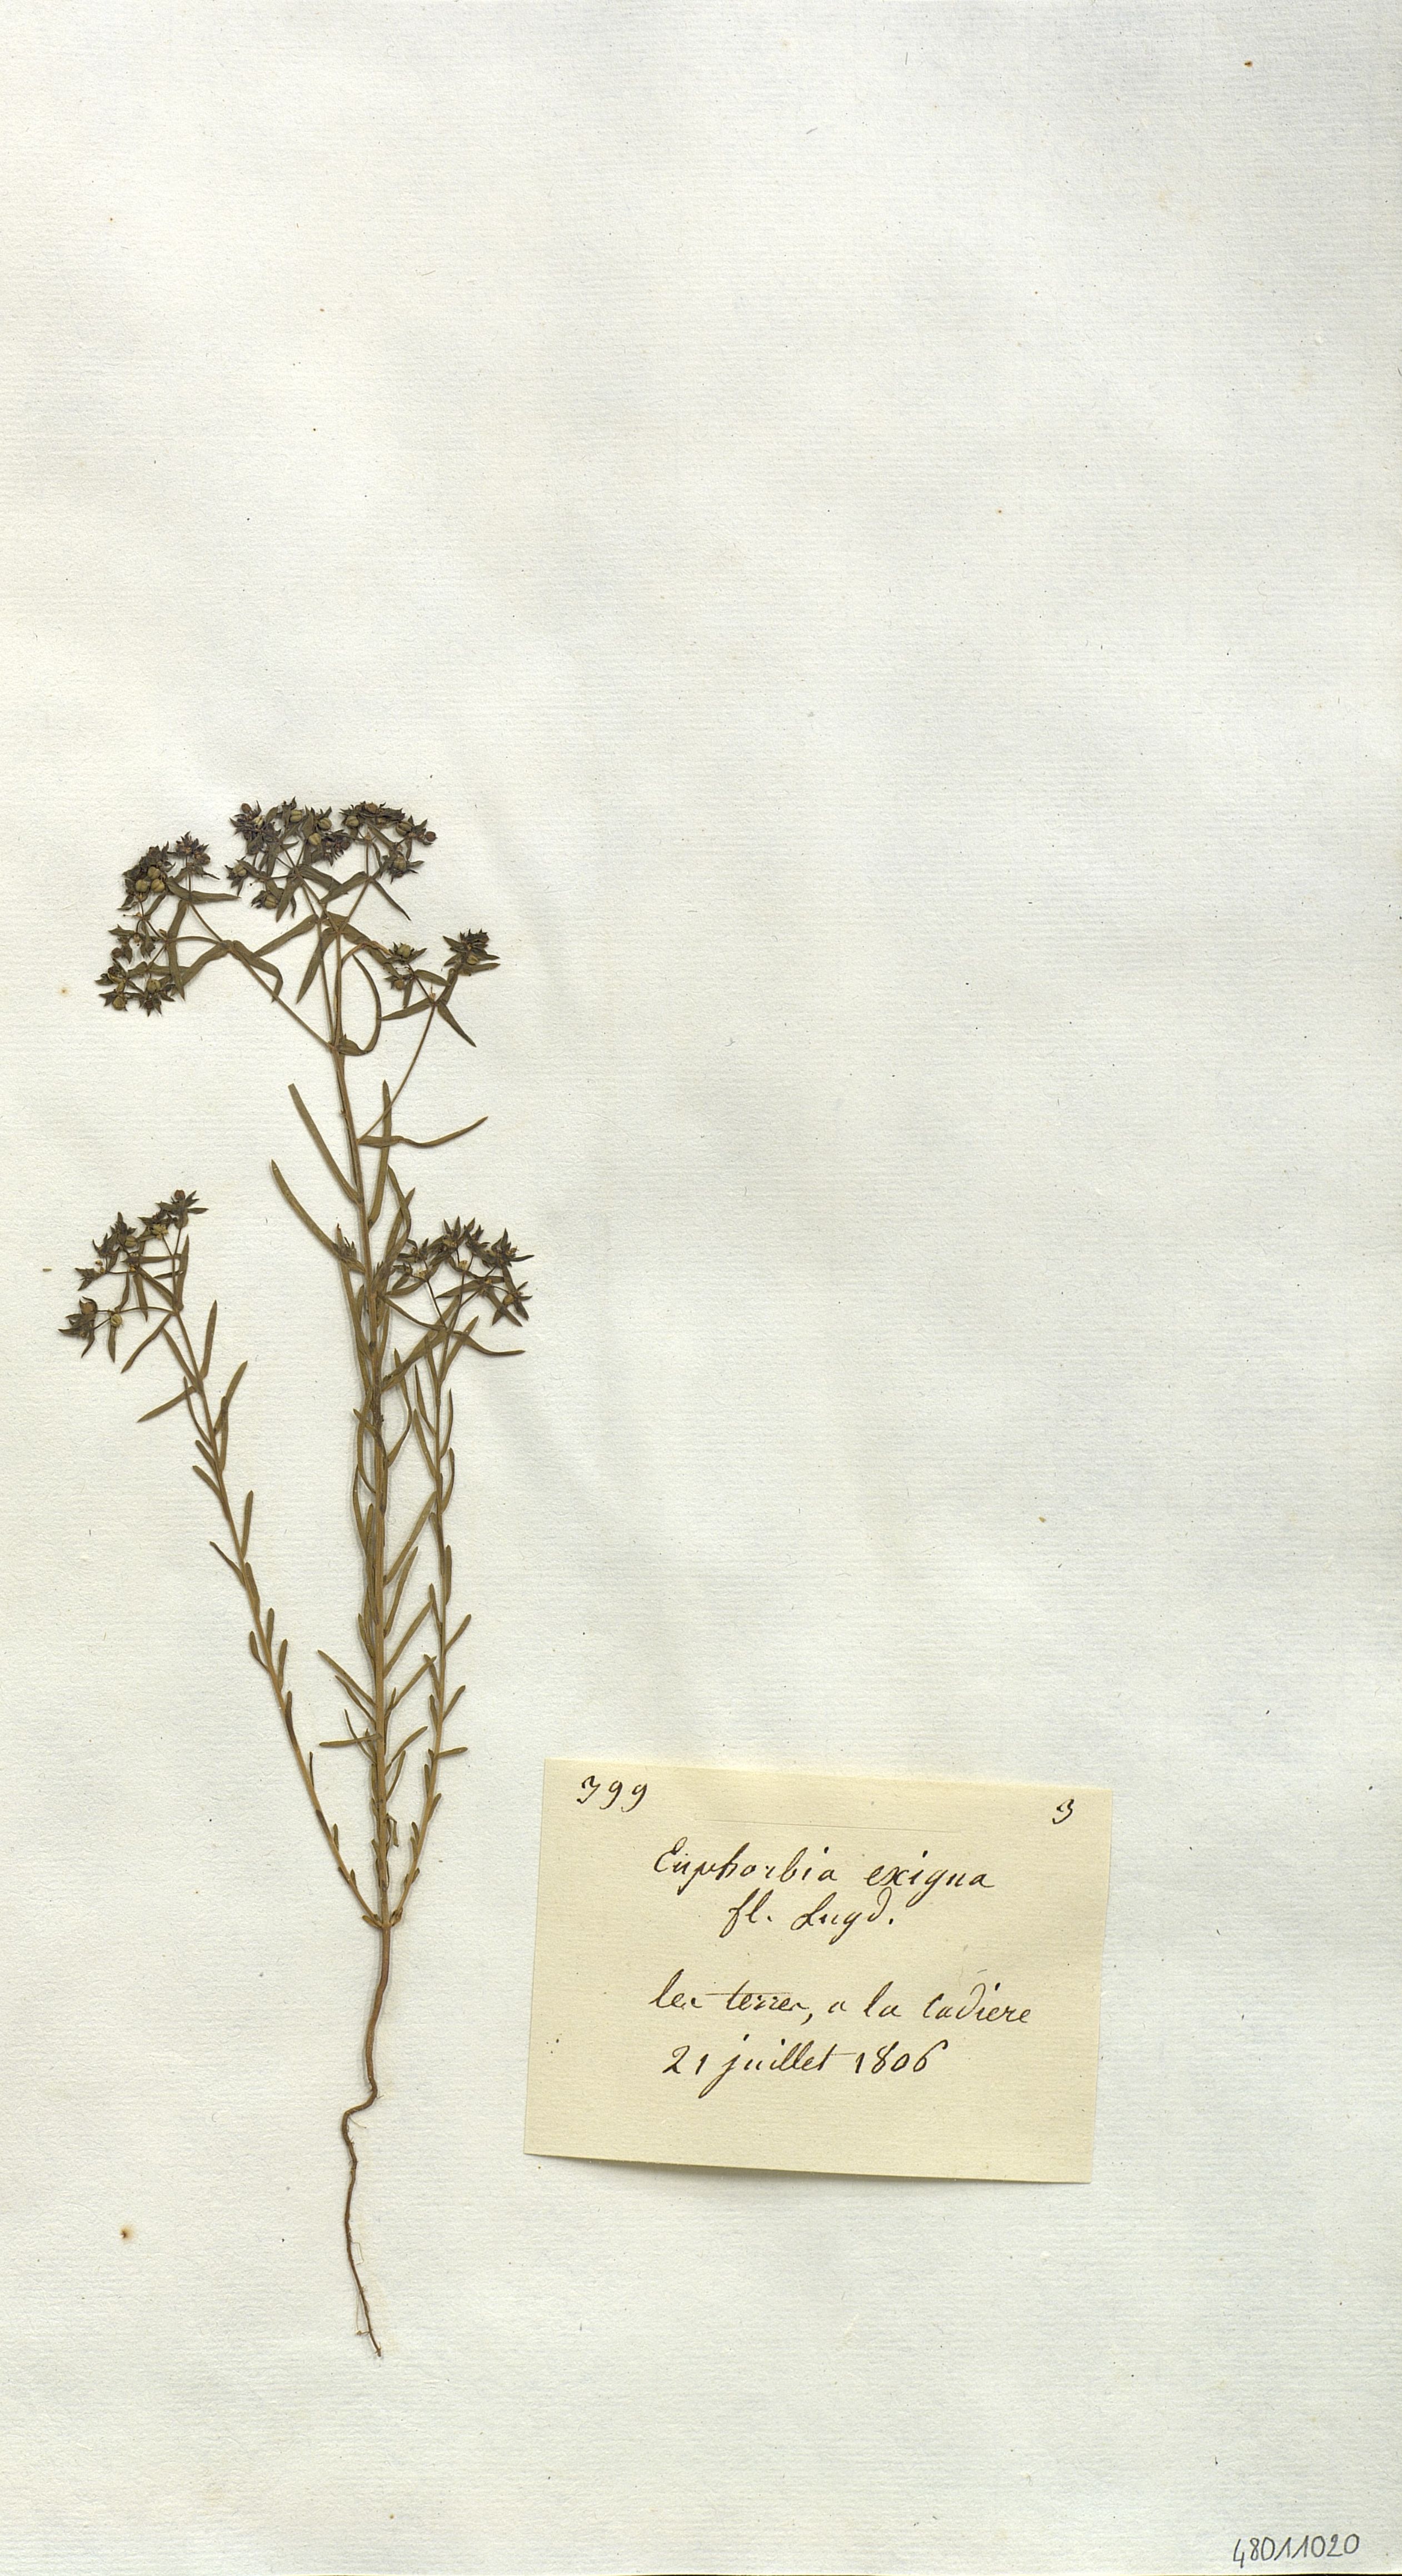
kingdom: Plantae
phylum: Tracheophyta
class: Magnoliopsida
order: Malpighiales
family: Euphorbiaceae
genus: Euphorbia
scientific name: Euphorbia exigua
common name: Dwarf spurge
